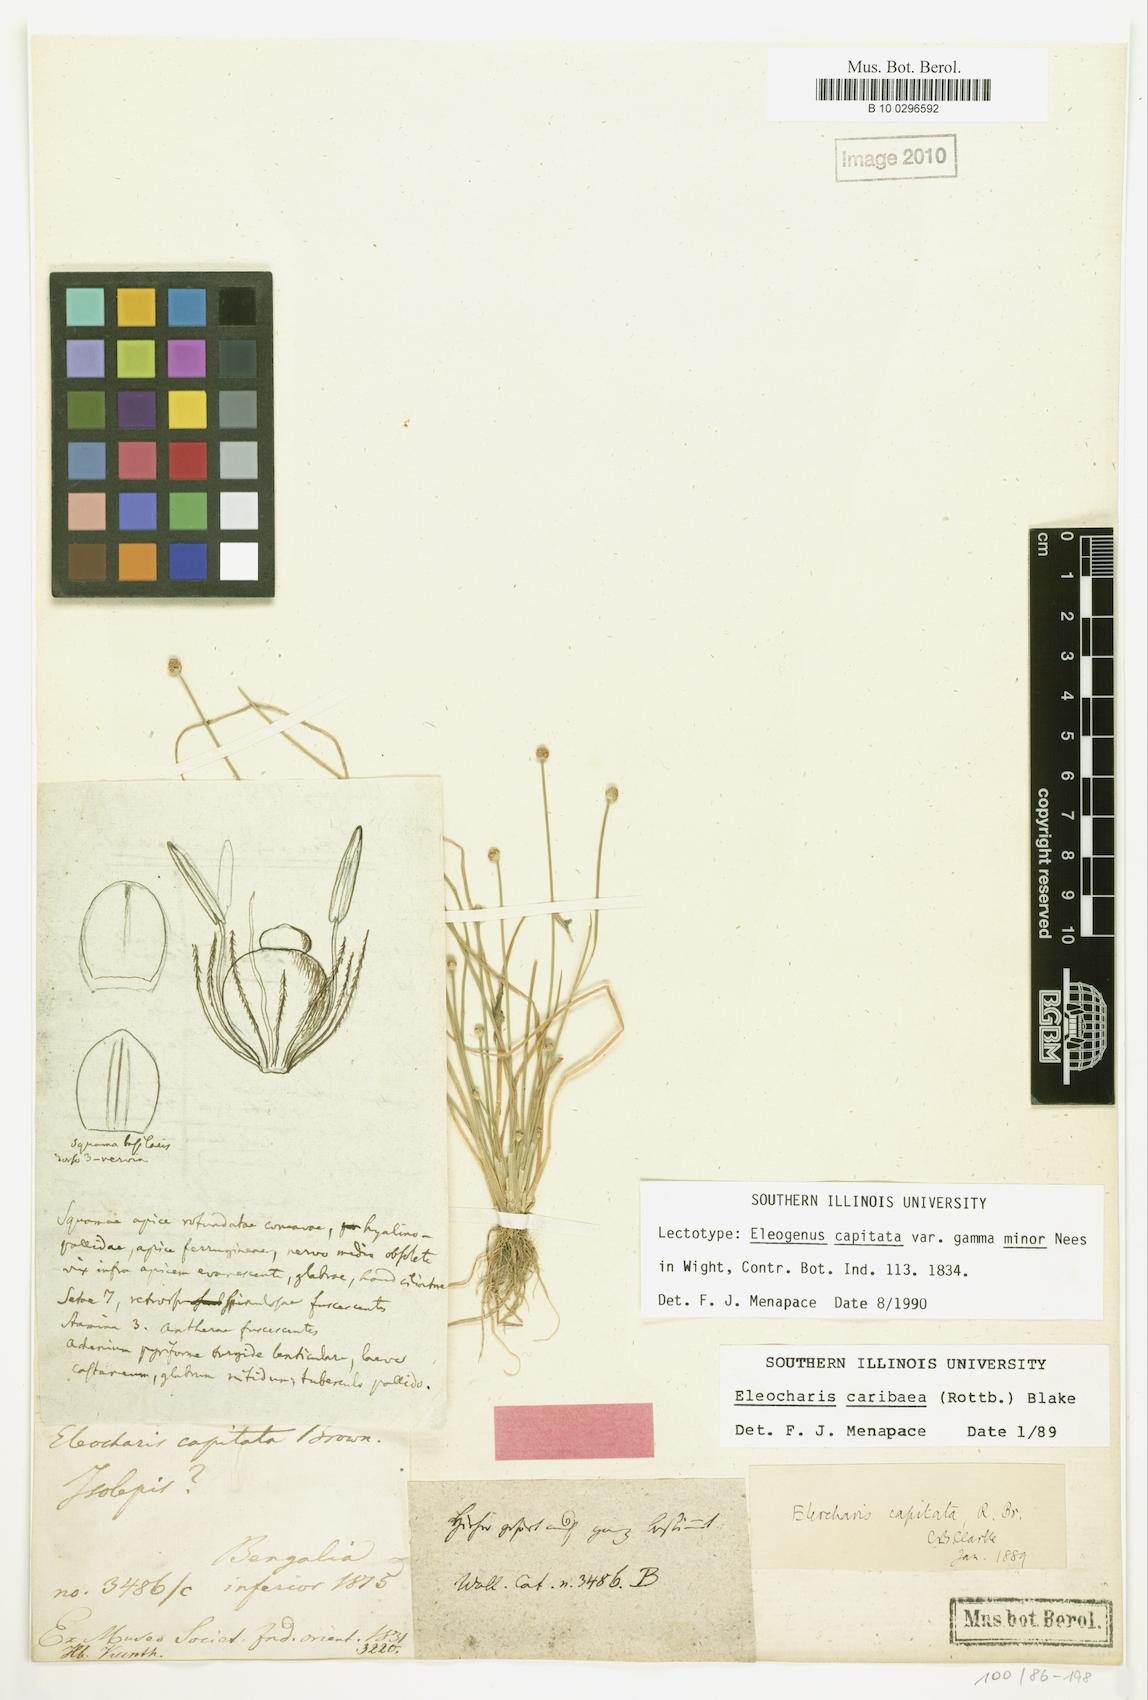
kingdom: Plantae
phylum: Tracheophyta
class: Liliopsida
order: Poales
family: Cyperaceae
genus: Eleocharis
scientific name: Eleocharis geniculata
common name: Canada spikesedge
